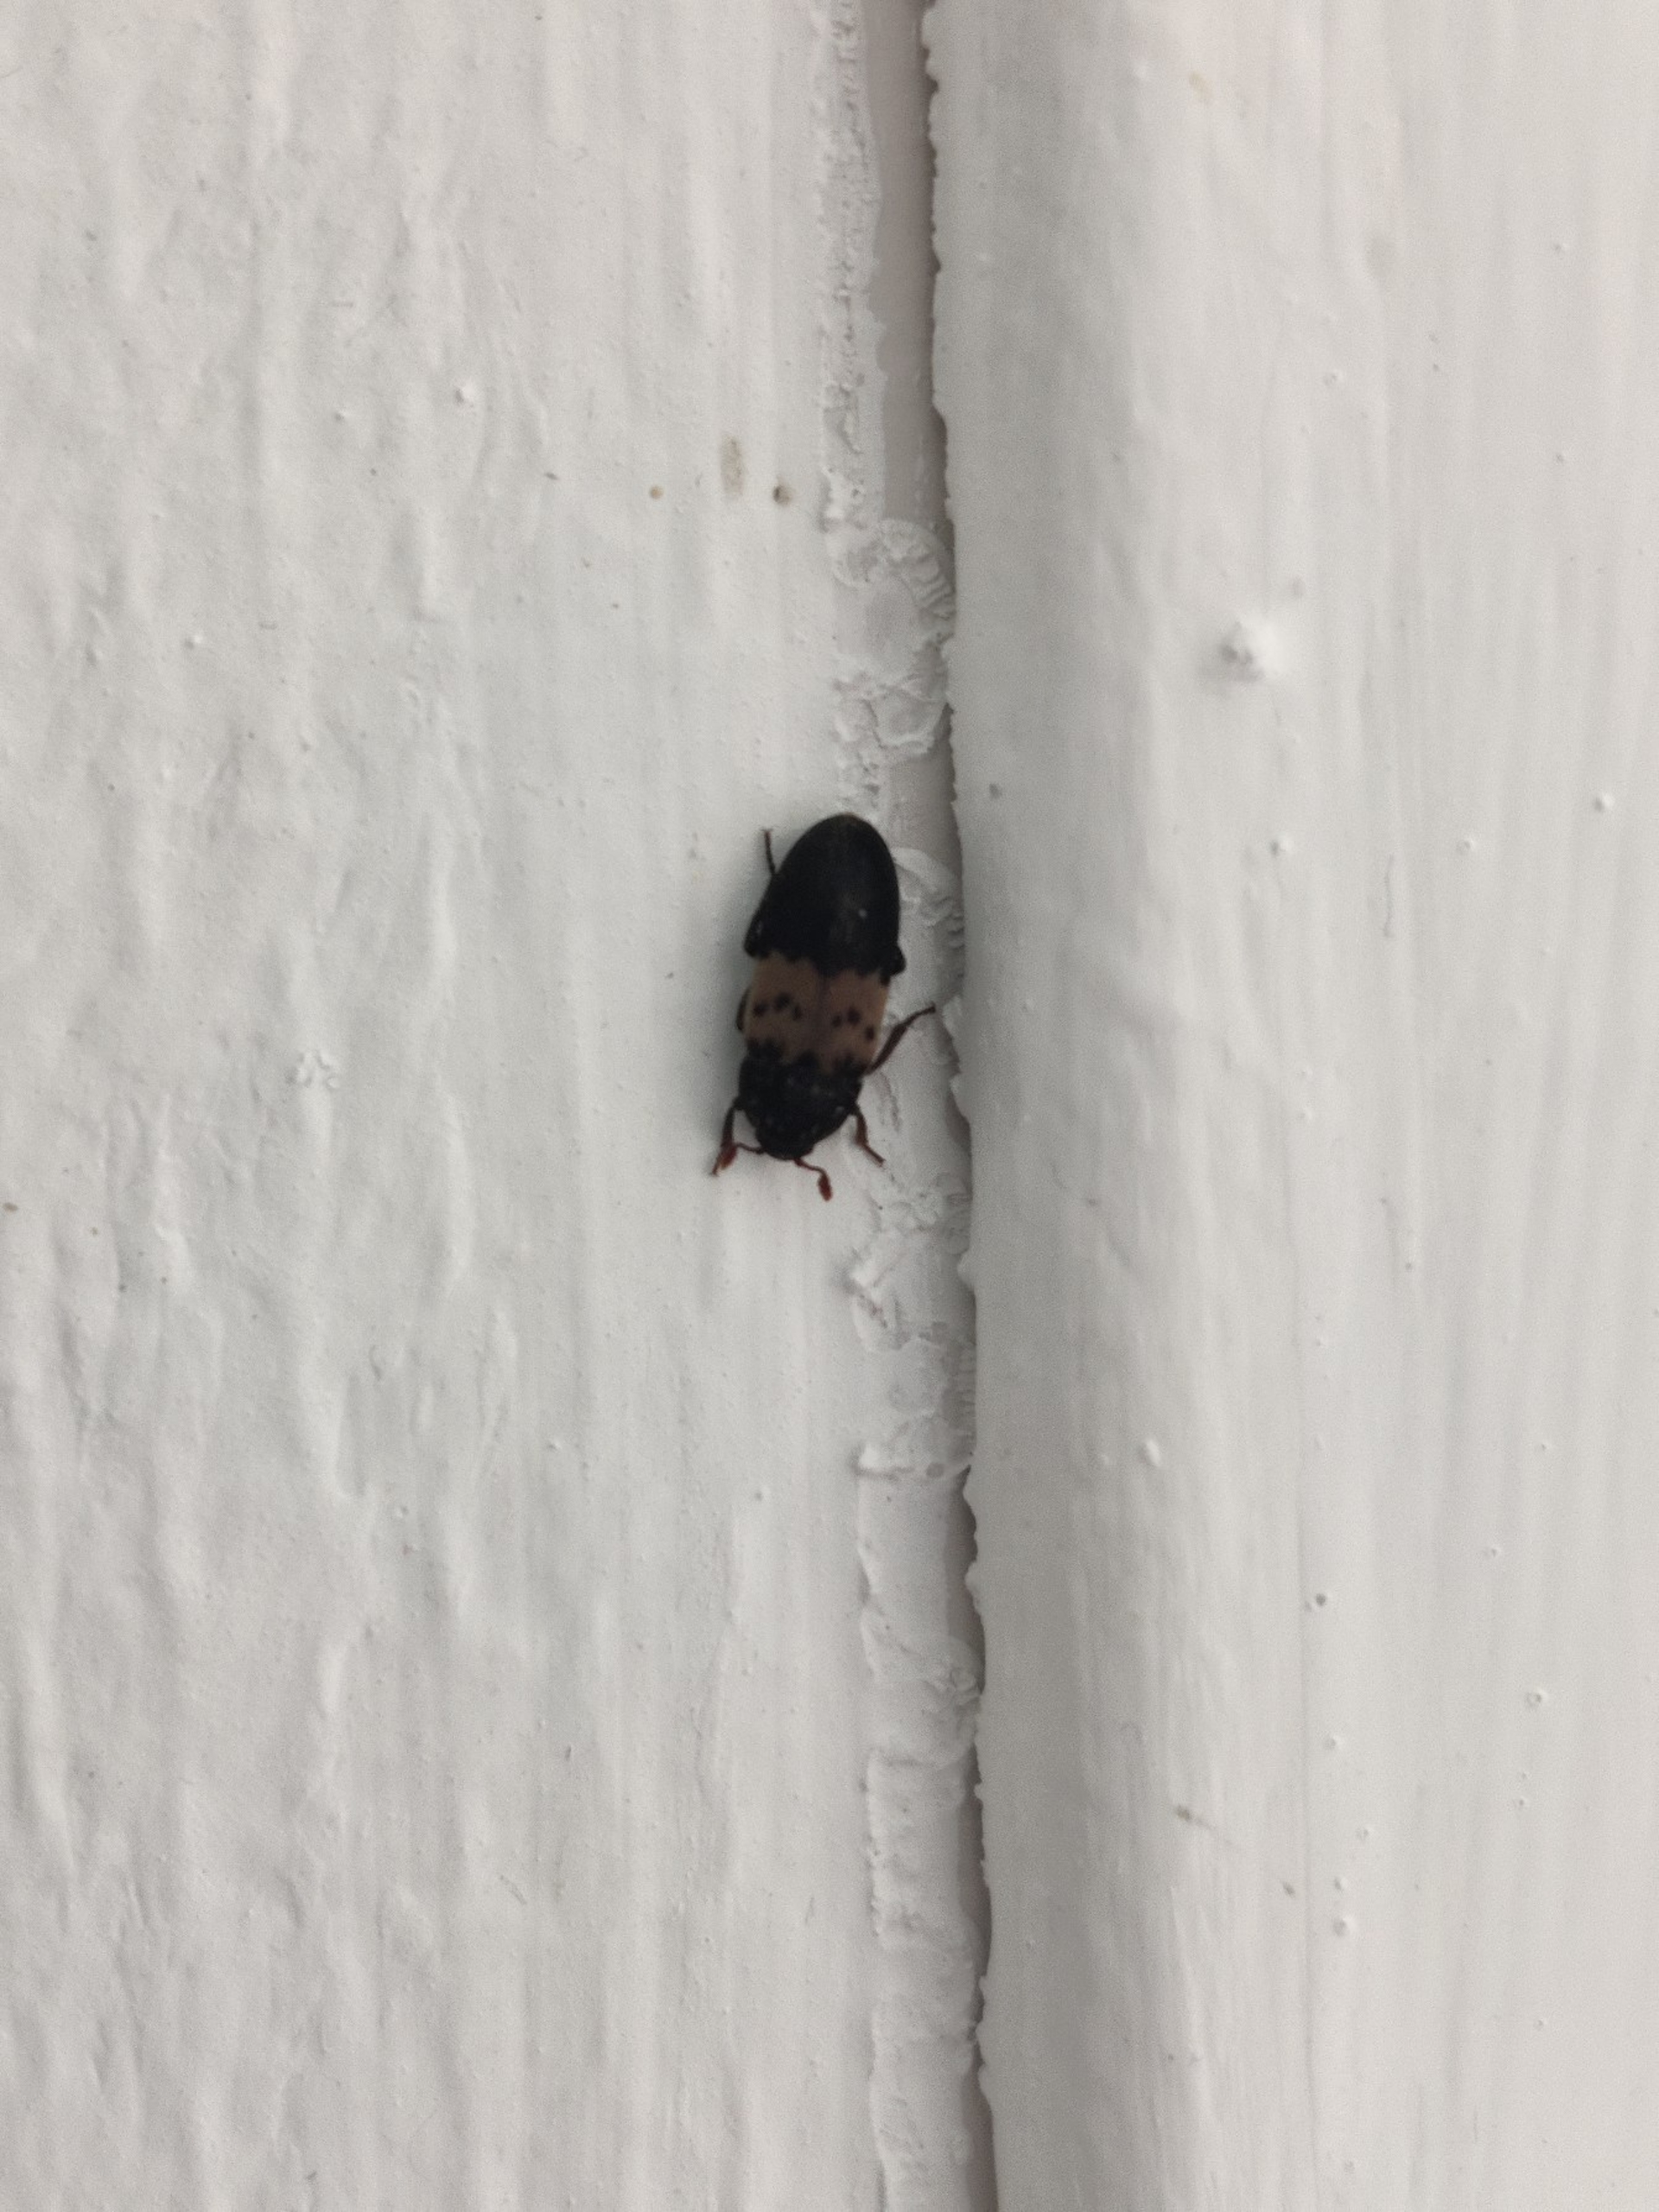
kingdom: Animalia
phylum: Arthropoda
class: Insecta
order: Coleoptera
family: Dermestidae
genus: Dermestes
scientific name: Dermestes lardarius
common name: Flæskeklanner
